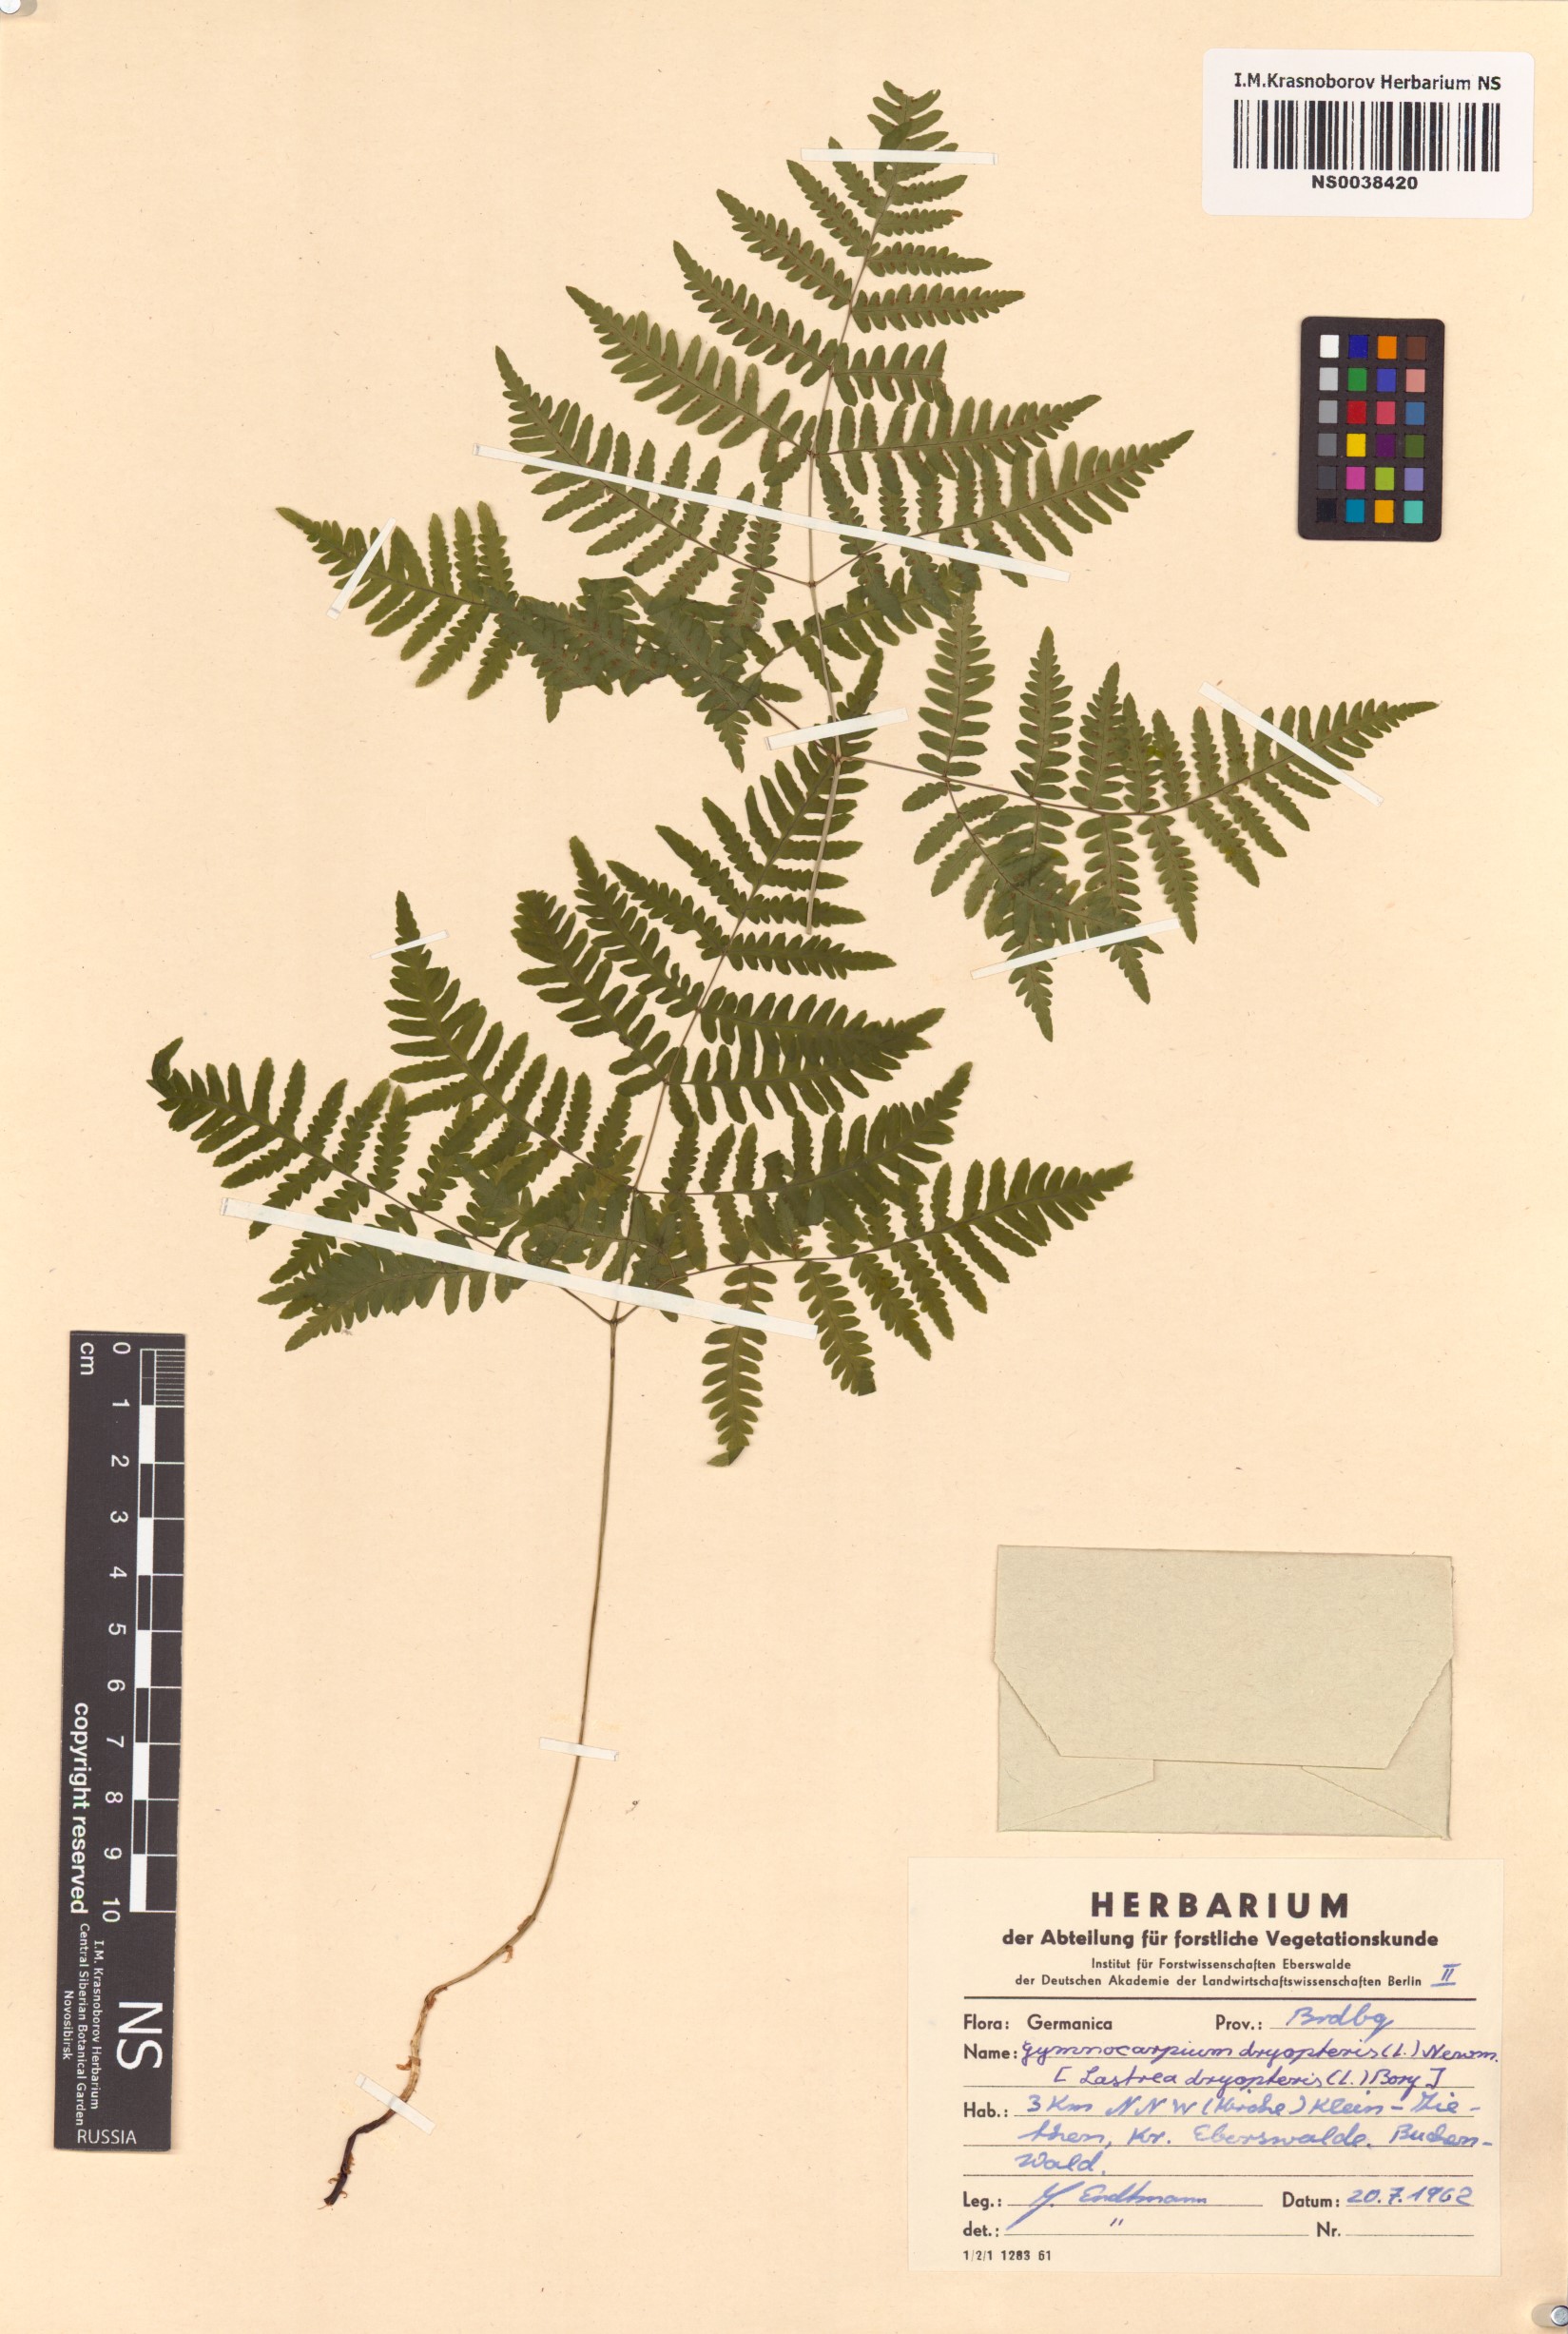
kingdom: Plantae
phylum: Tracheophyta
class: Polypodiopsida
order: Polypodiales
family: Cystopteridaceae
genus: Gymnocarpium
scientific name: Gymnocarpium dryopteris
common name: Oak fern
